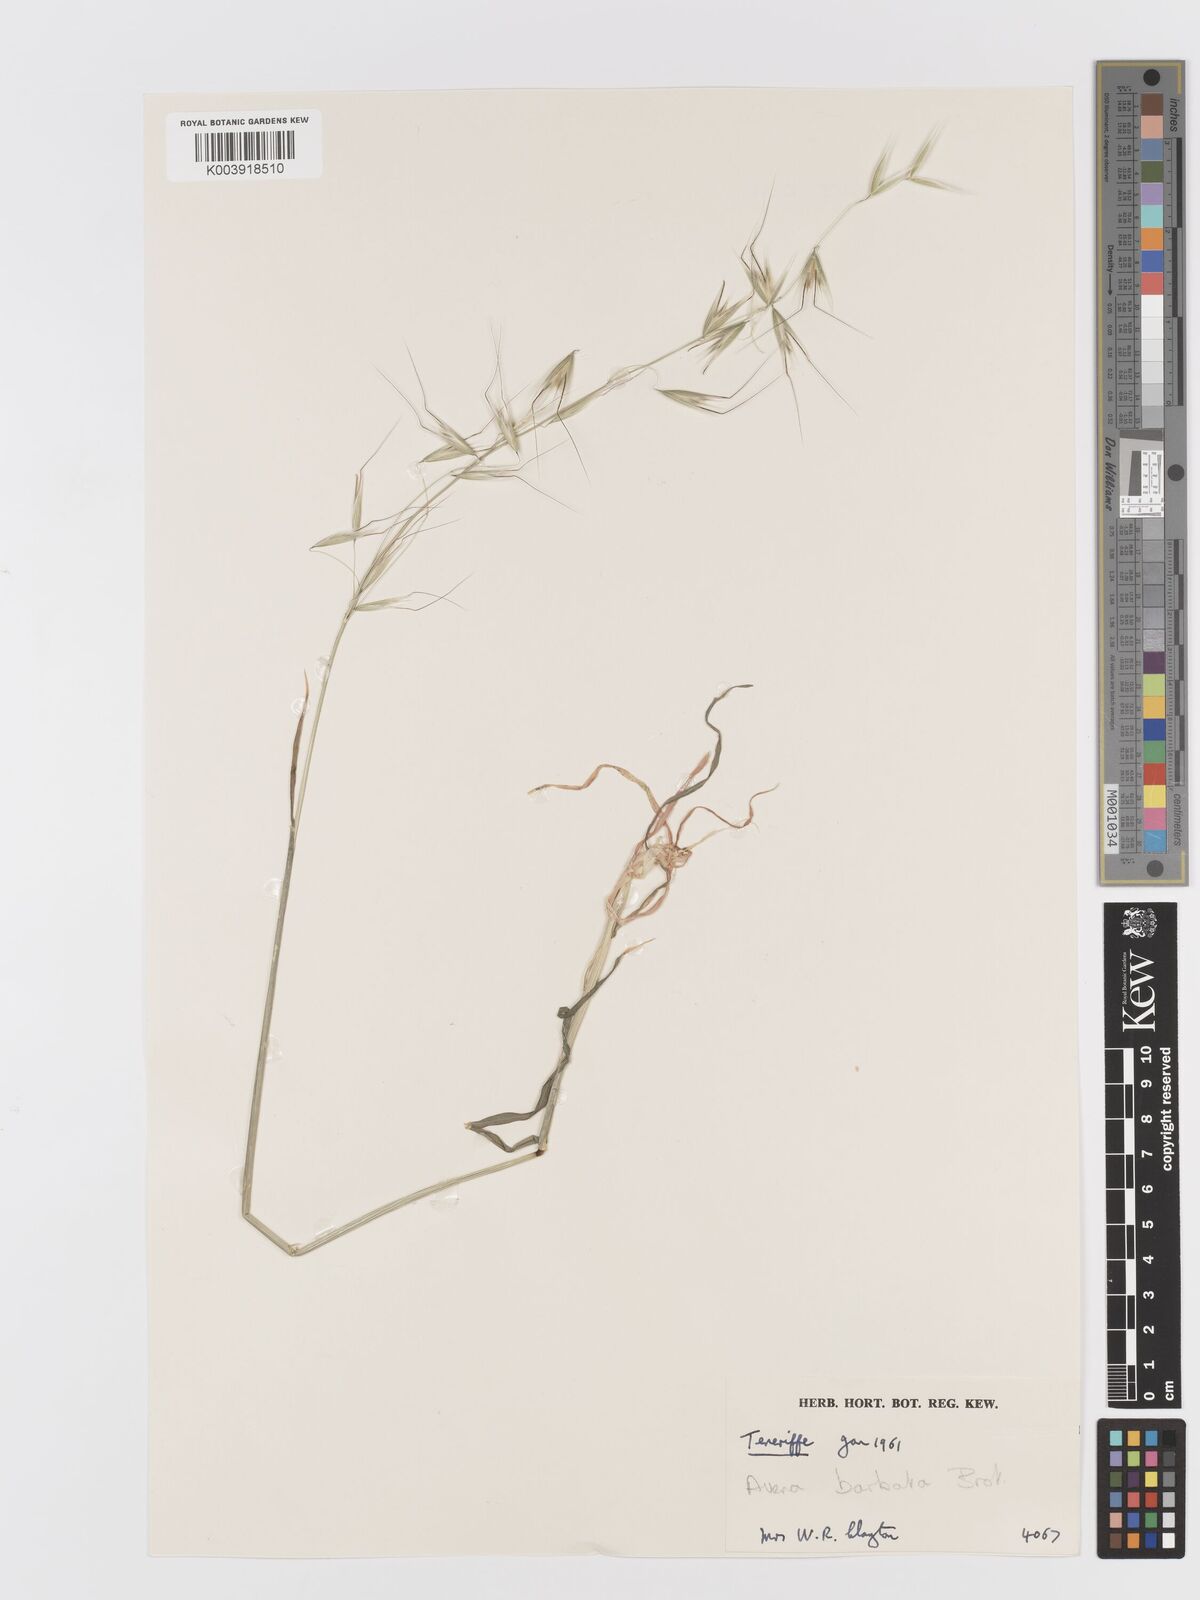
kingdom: Plantae
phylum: Tracheophyta
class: Liliopsida
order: Poales
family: Poaceae
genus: Avena
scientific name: Avena
